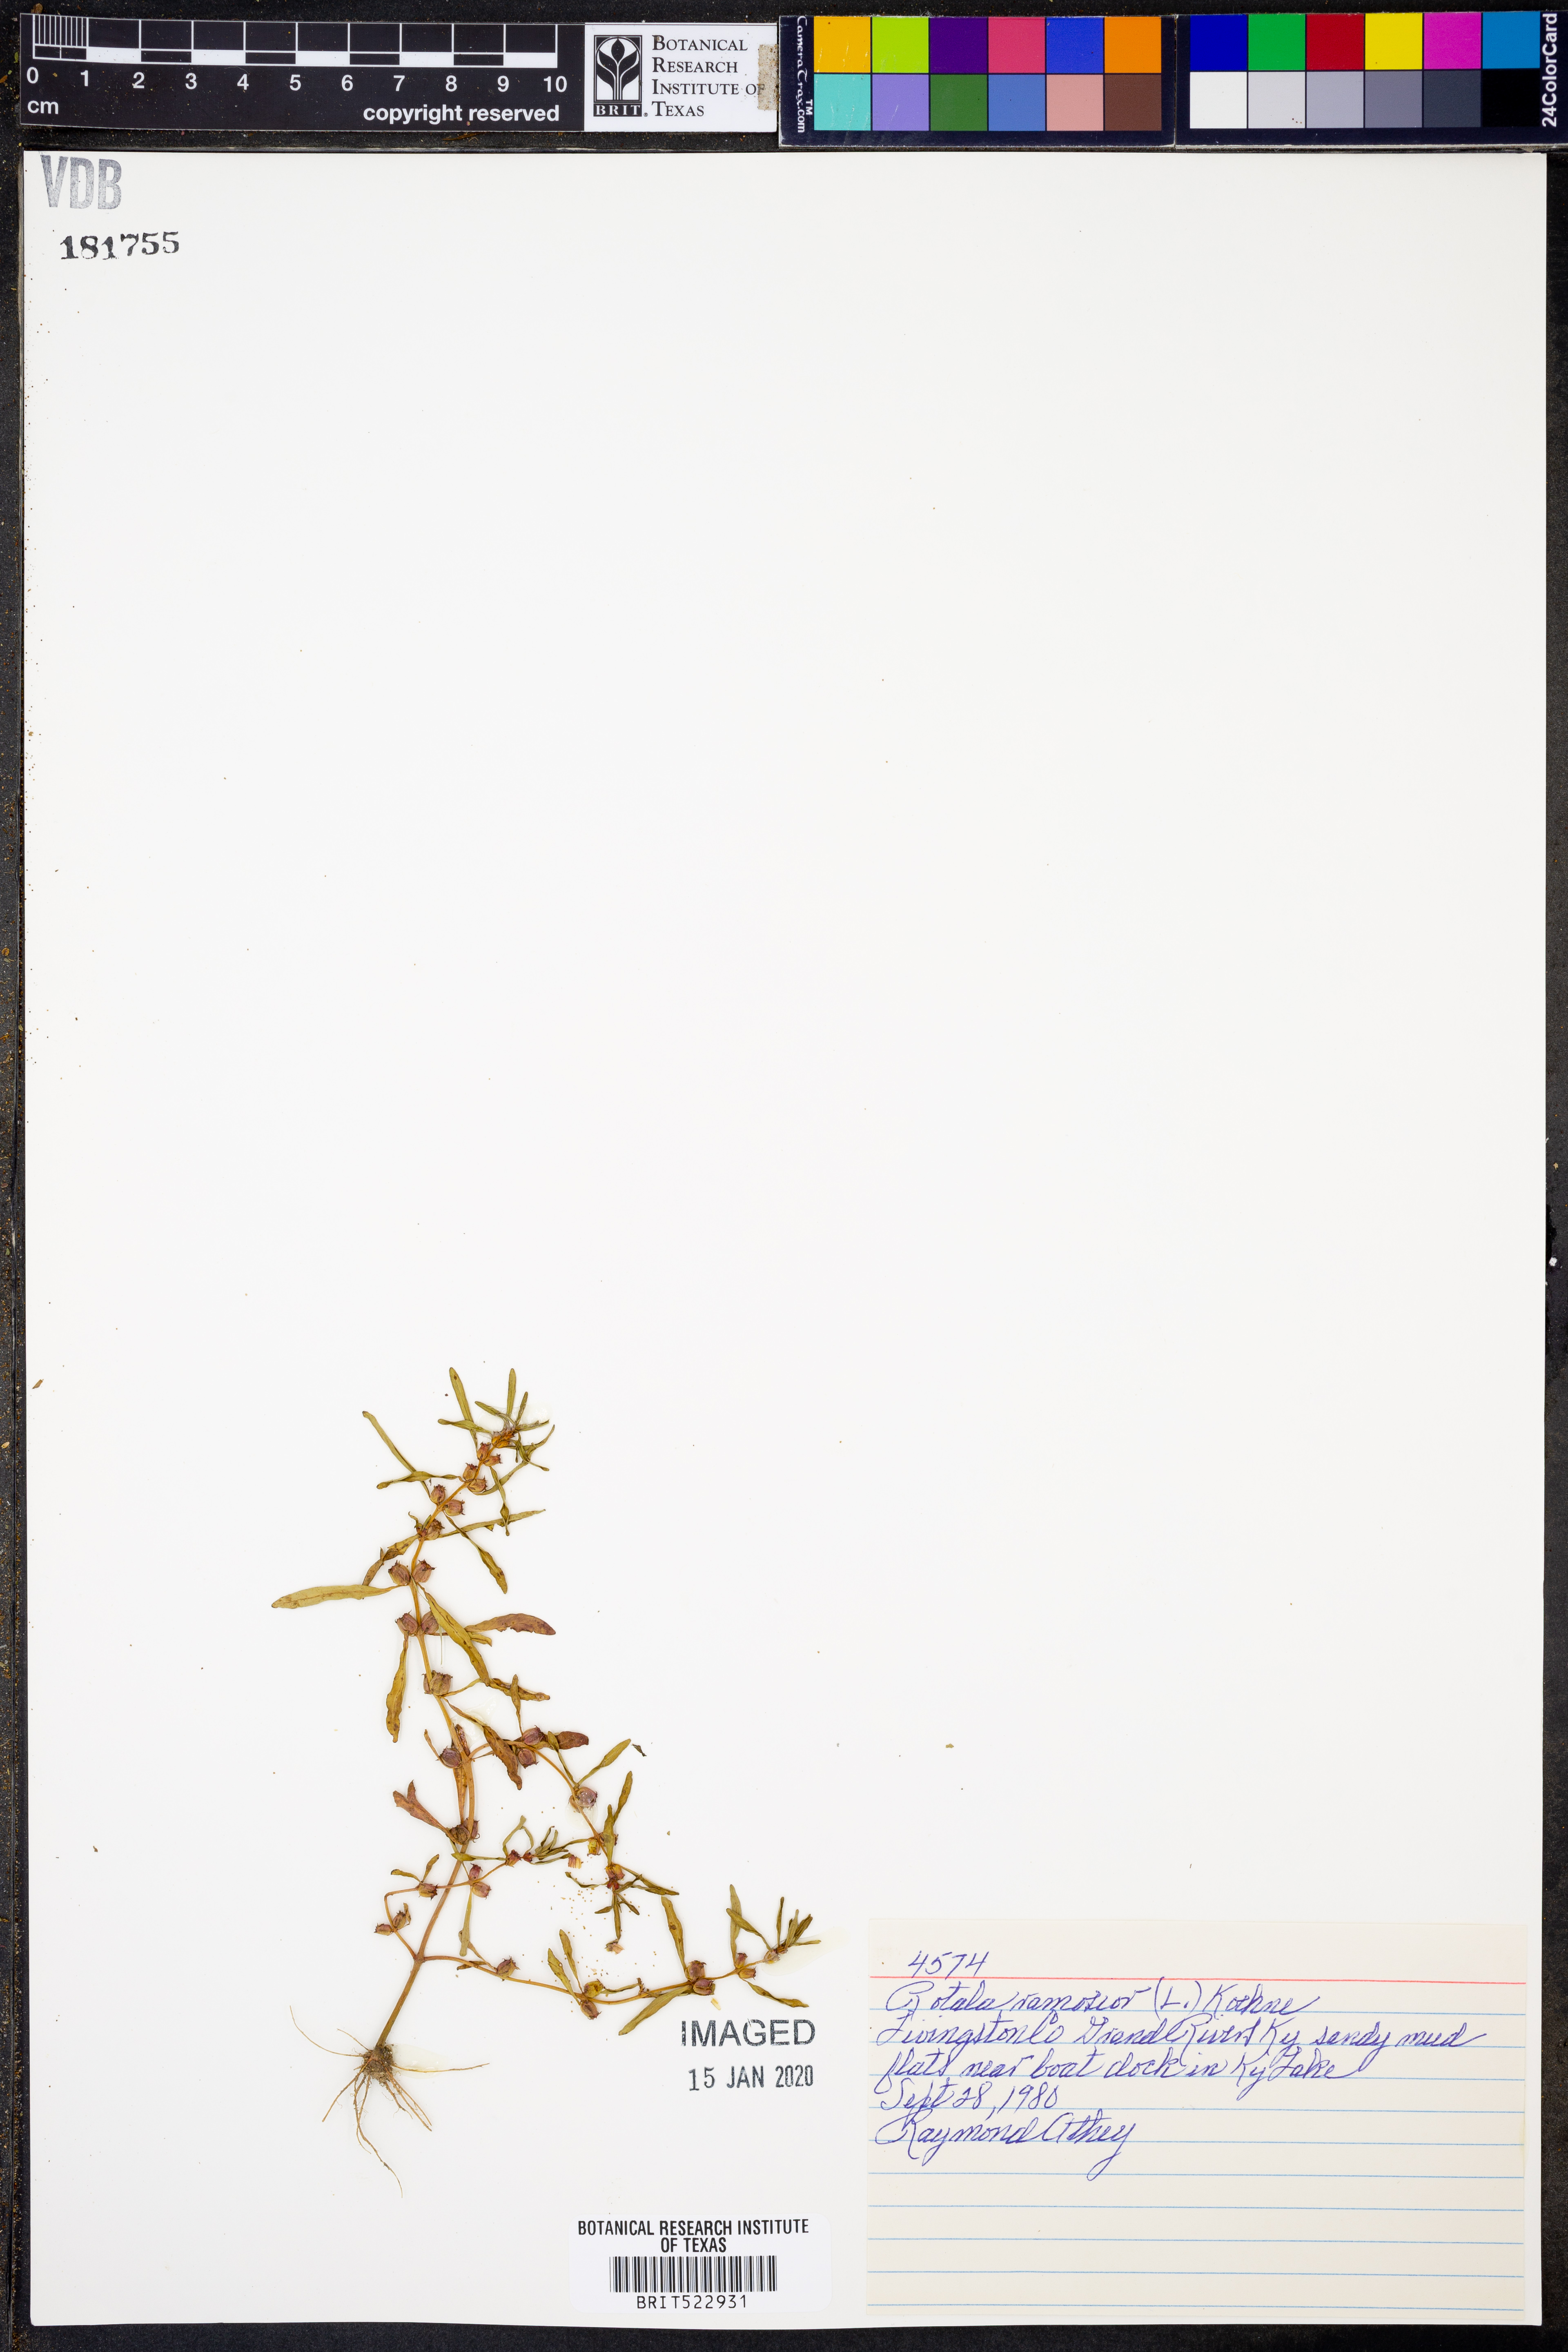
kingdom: Plantae
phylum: Tracheophyta
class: Magnoliopsida
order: Myrtales
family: Lythraceae
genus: Rotala
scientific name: Rotala ramosior
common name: Lowland rotala
